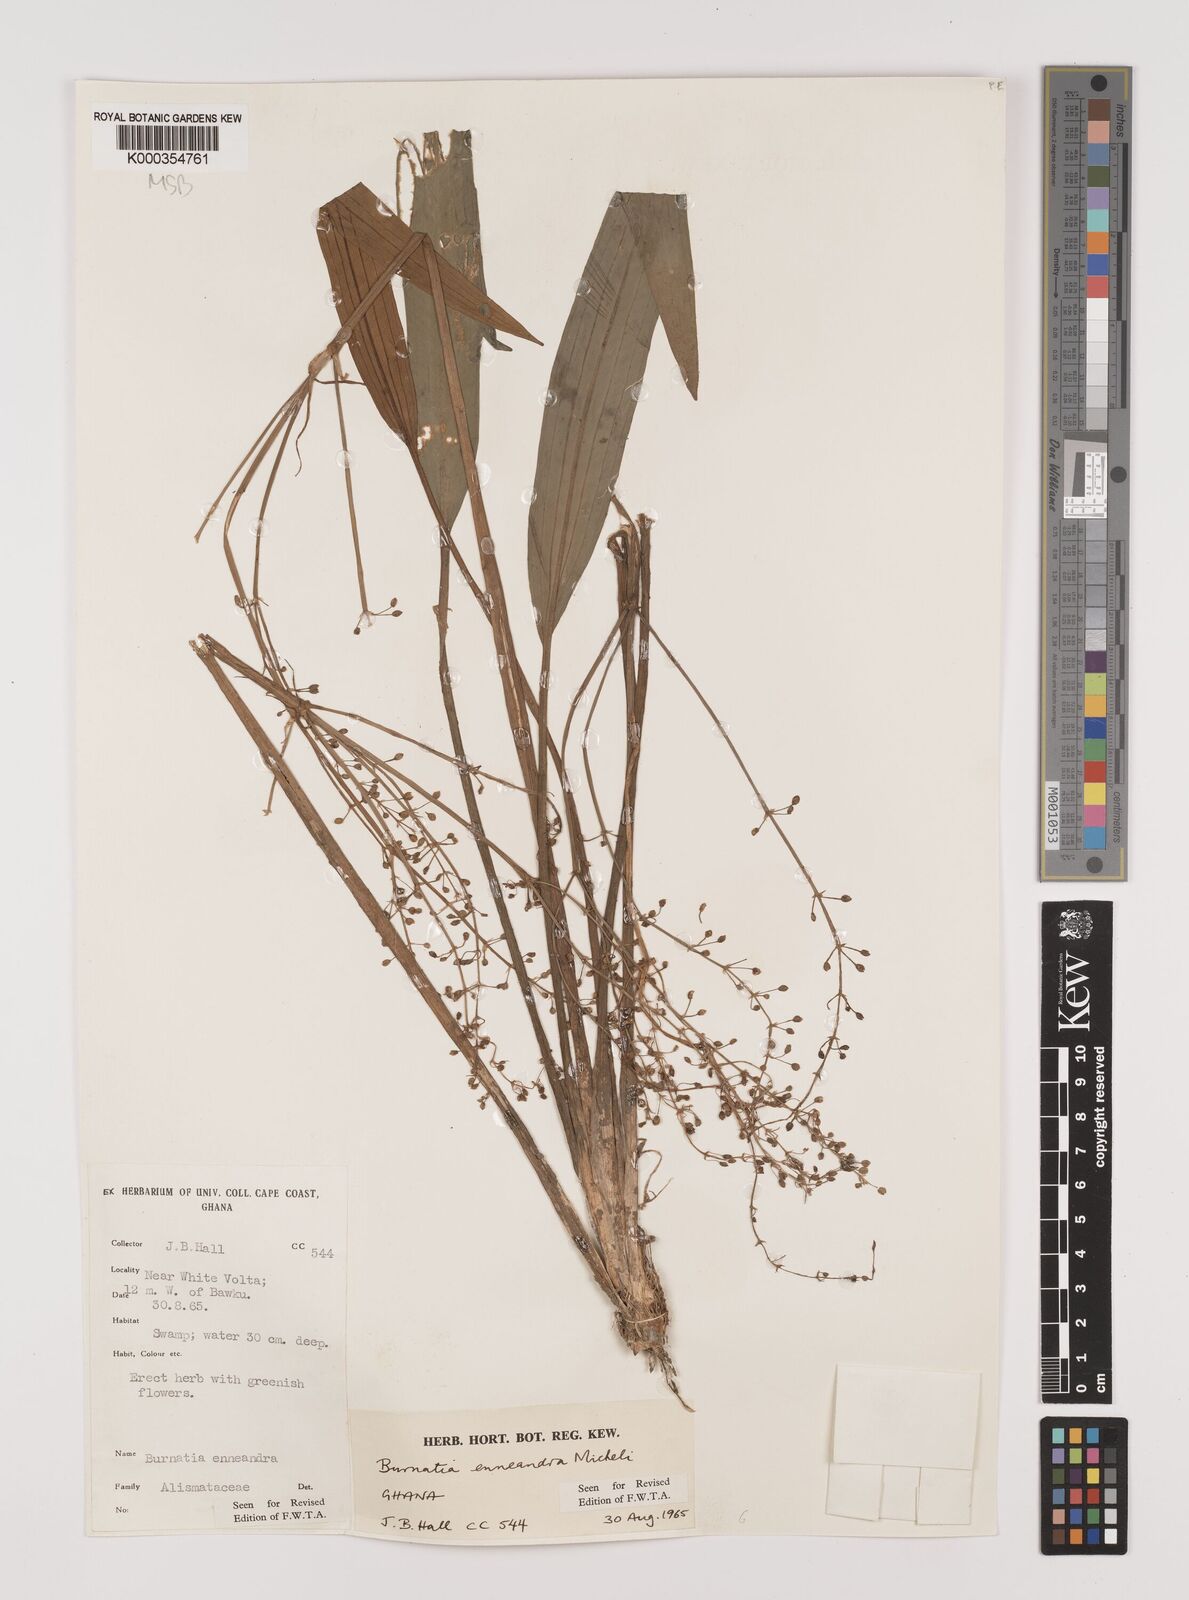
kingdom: Plantae
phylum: Tracheophyta
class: Liliopsida
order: Alismatales
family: Alismataceae
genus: Burnatia
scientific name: Burnatia enneandra
